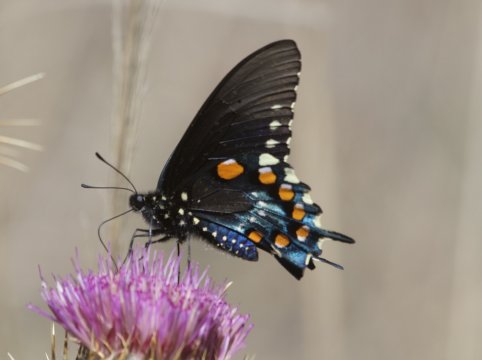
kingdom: Animalia
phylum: Arthropoda
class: Insecta
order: Lepidoptera
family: Papilionidae
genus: Battus
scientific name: Battus philenor
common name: Pipevine Swallowtail
